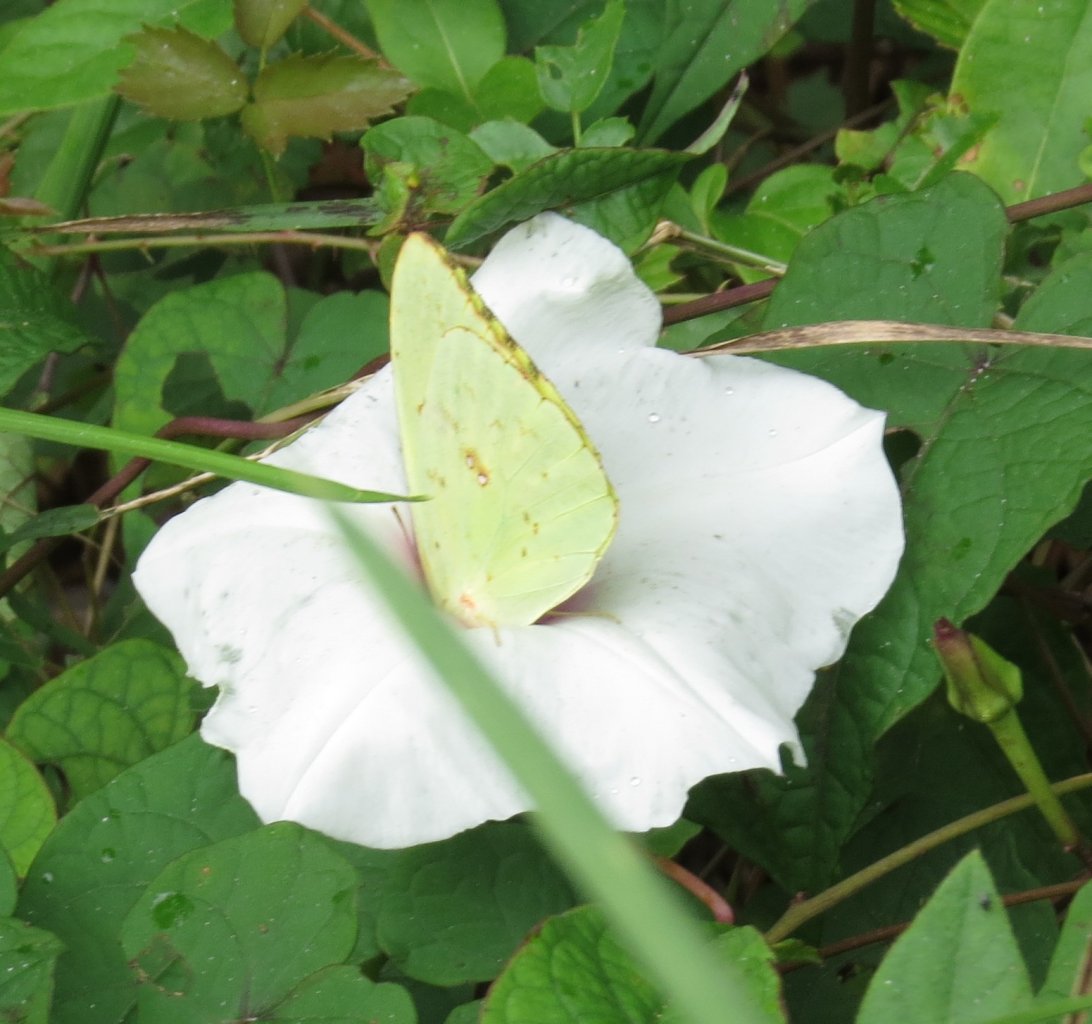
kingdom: Animalia
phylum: Arthropoda
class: Insecta
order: Lepidoptera
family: Pieridae
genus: Phoebis
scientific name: Phoebis sennae
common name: Cloudless Sulphur
